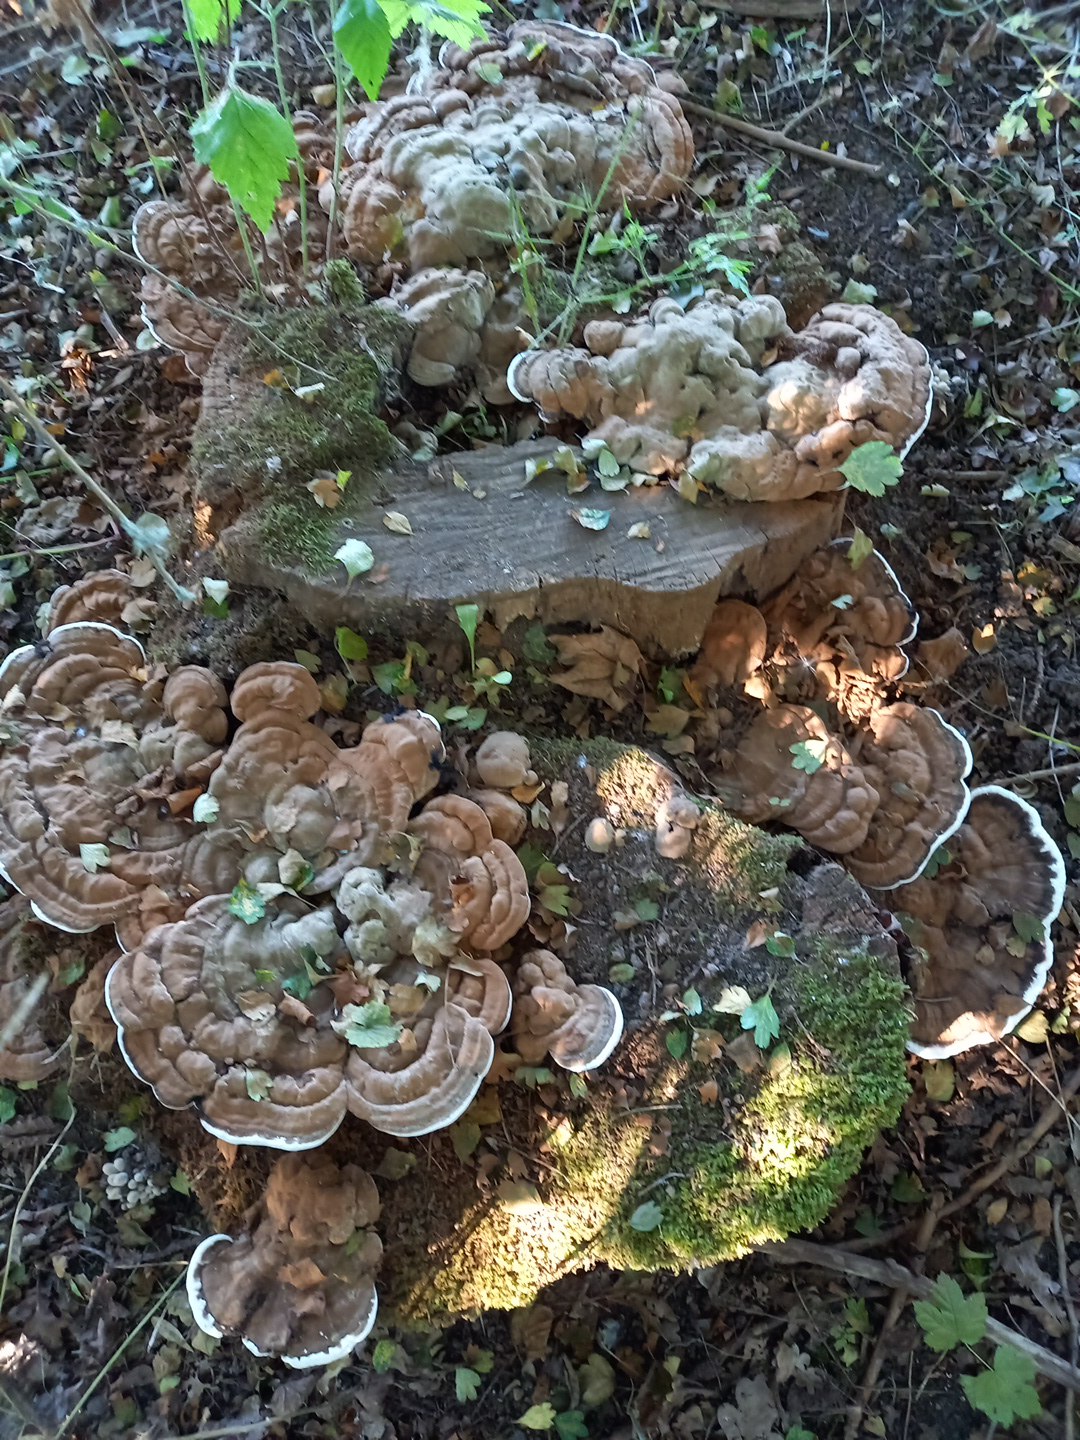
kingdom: Fungi
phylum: Basidiomycota
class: Agaricomycetes
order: Polyporales
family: Polyporaceae
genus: Ganoderma
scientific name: Ganoderma applanatum
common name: flad lakporesvamp
